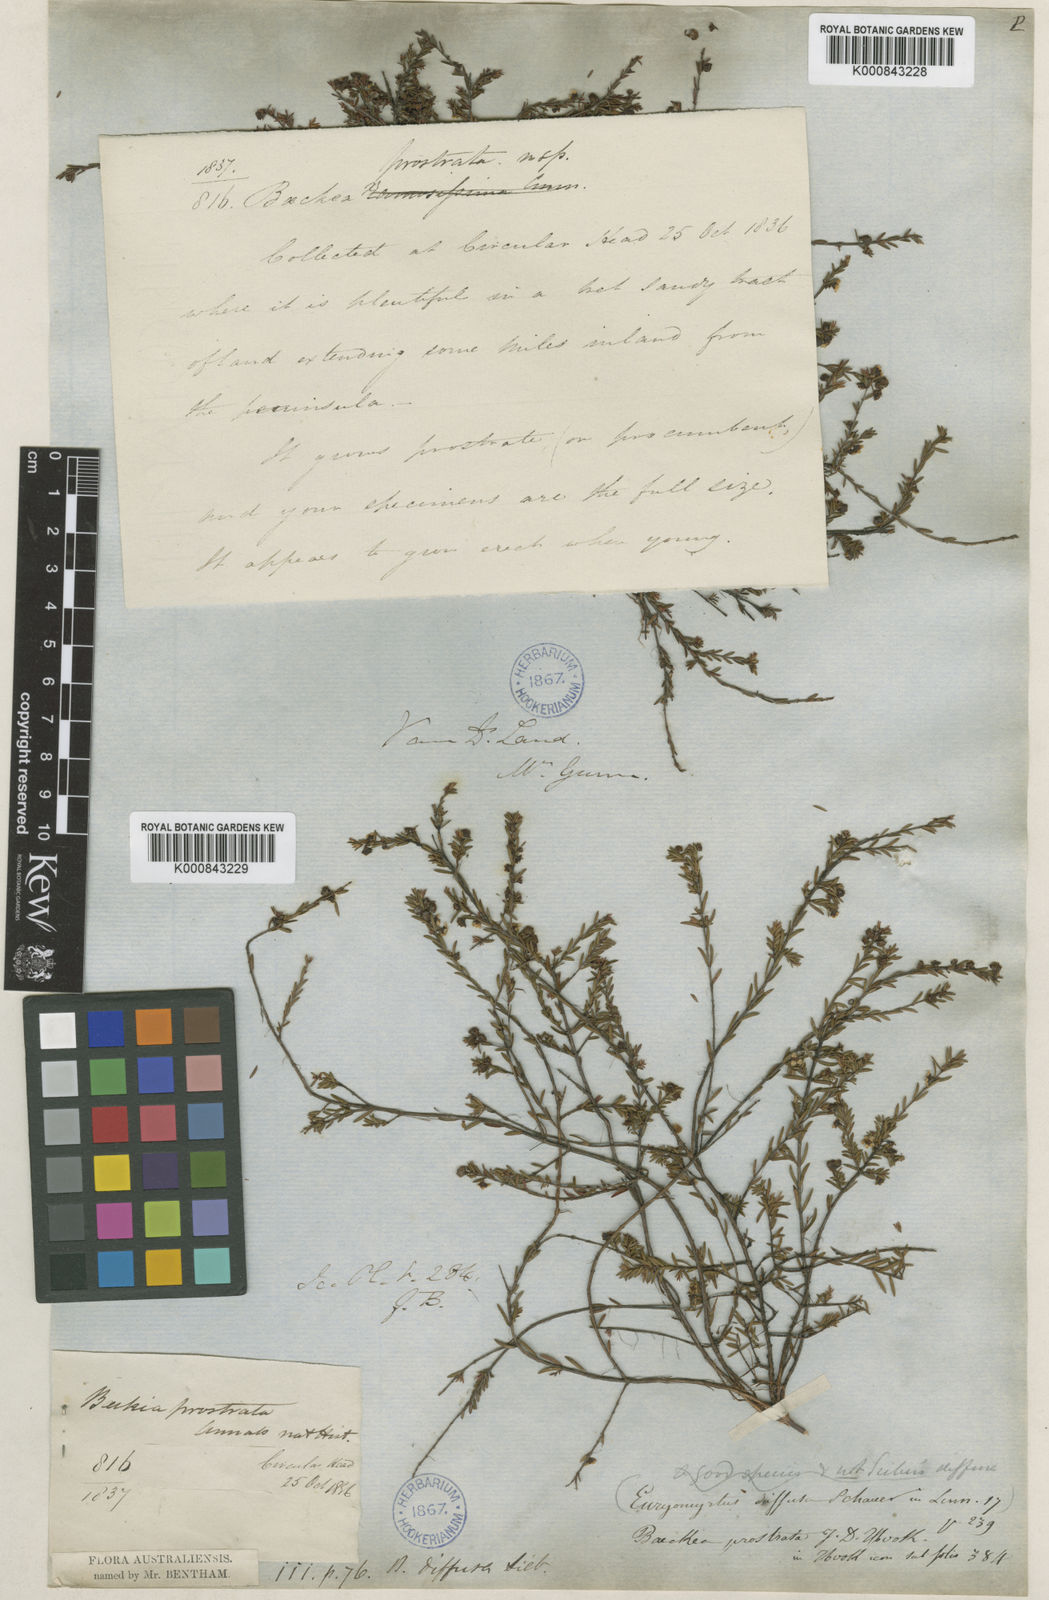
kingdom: Plantae
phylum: Tracheophyta
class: Magnoliopsida
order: Myrtales
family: Myrtaceae
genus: Euryomyrtus
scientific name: Euryomyrtus ramosissima
